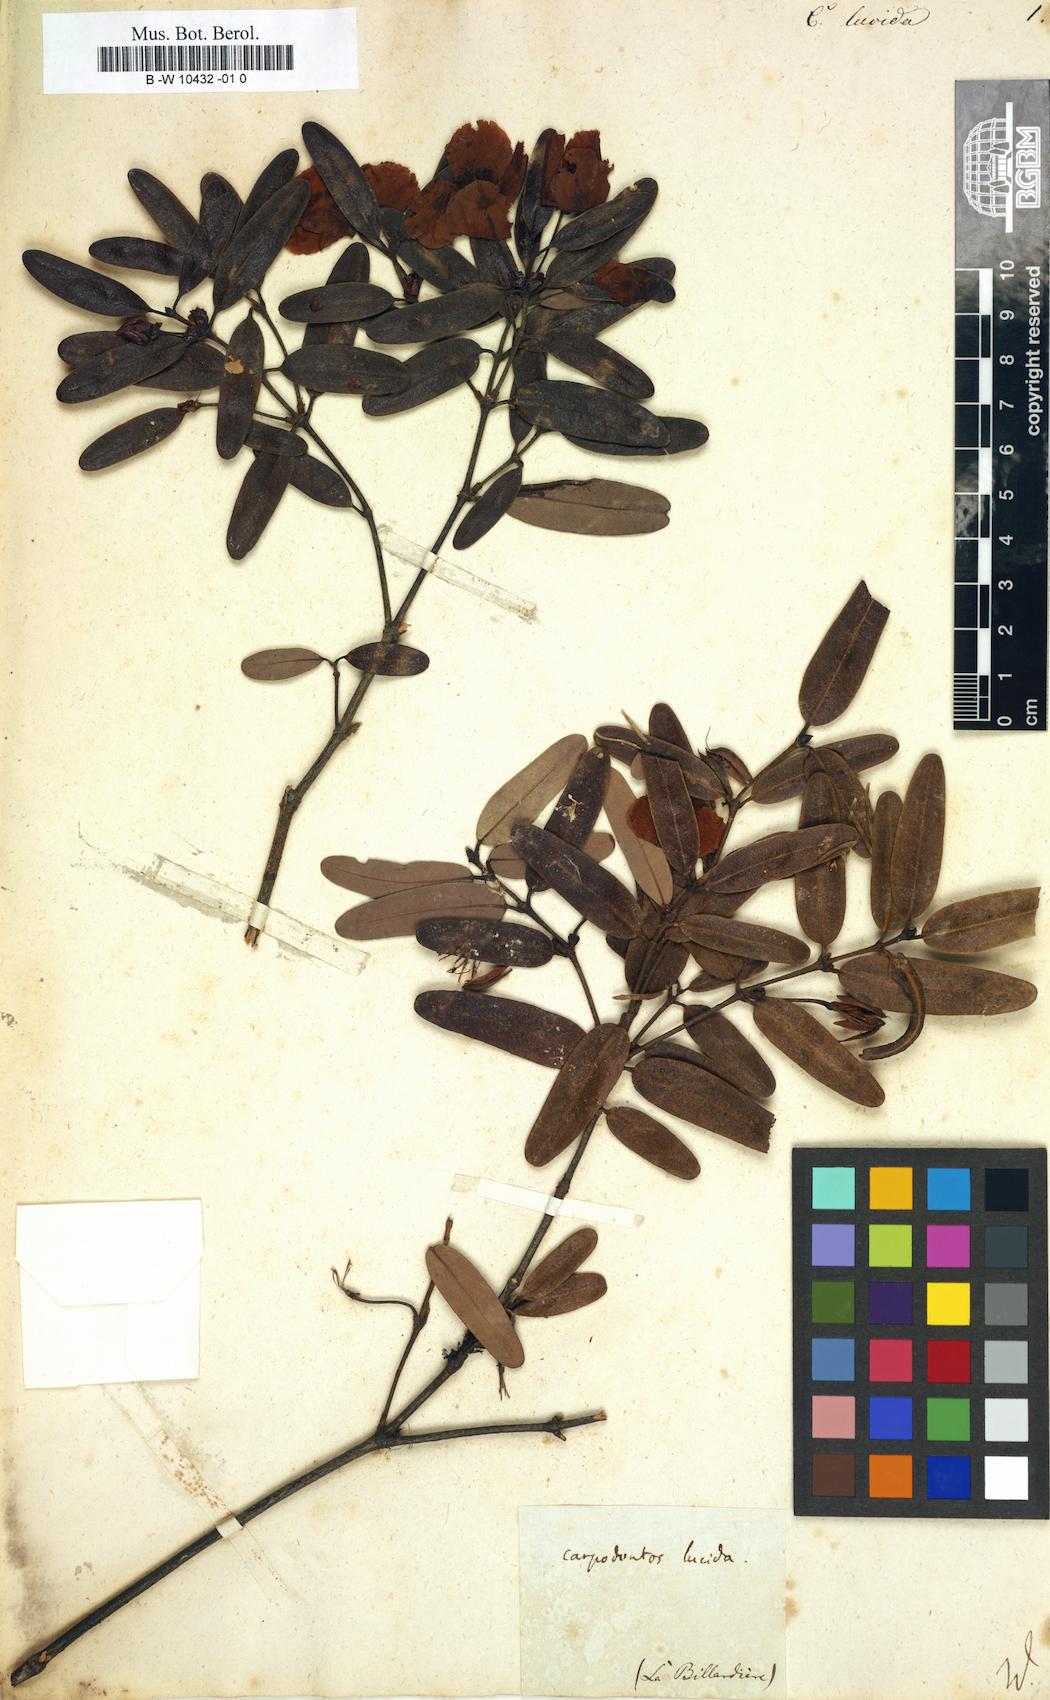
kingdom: Plantae
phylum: Tracheophyta
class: Magnoliopsida
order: Oxalidales
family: Cunoniaceae
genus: Eucryphia
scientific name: Eucryphia lucida
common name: Leatherwood
